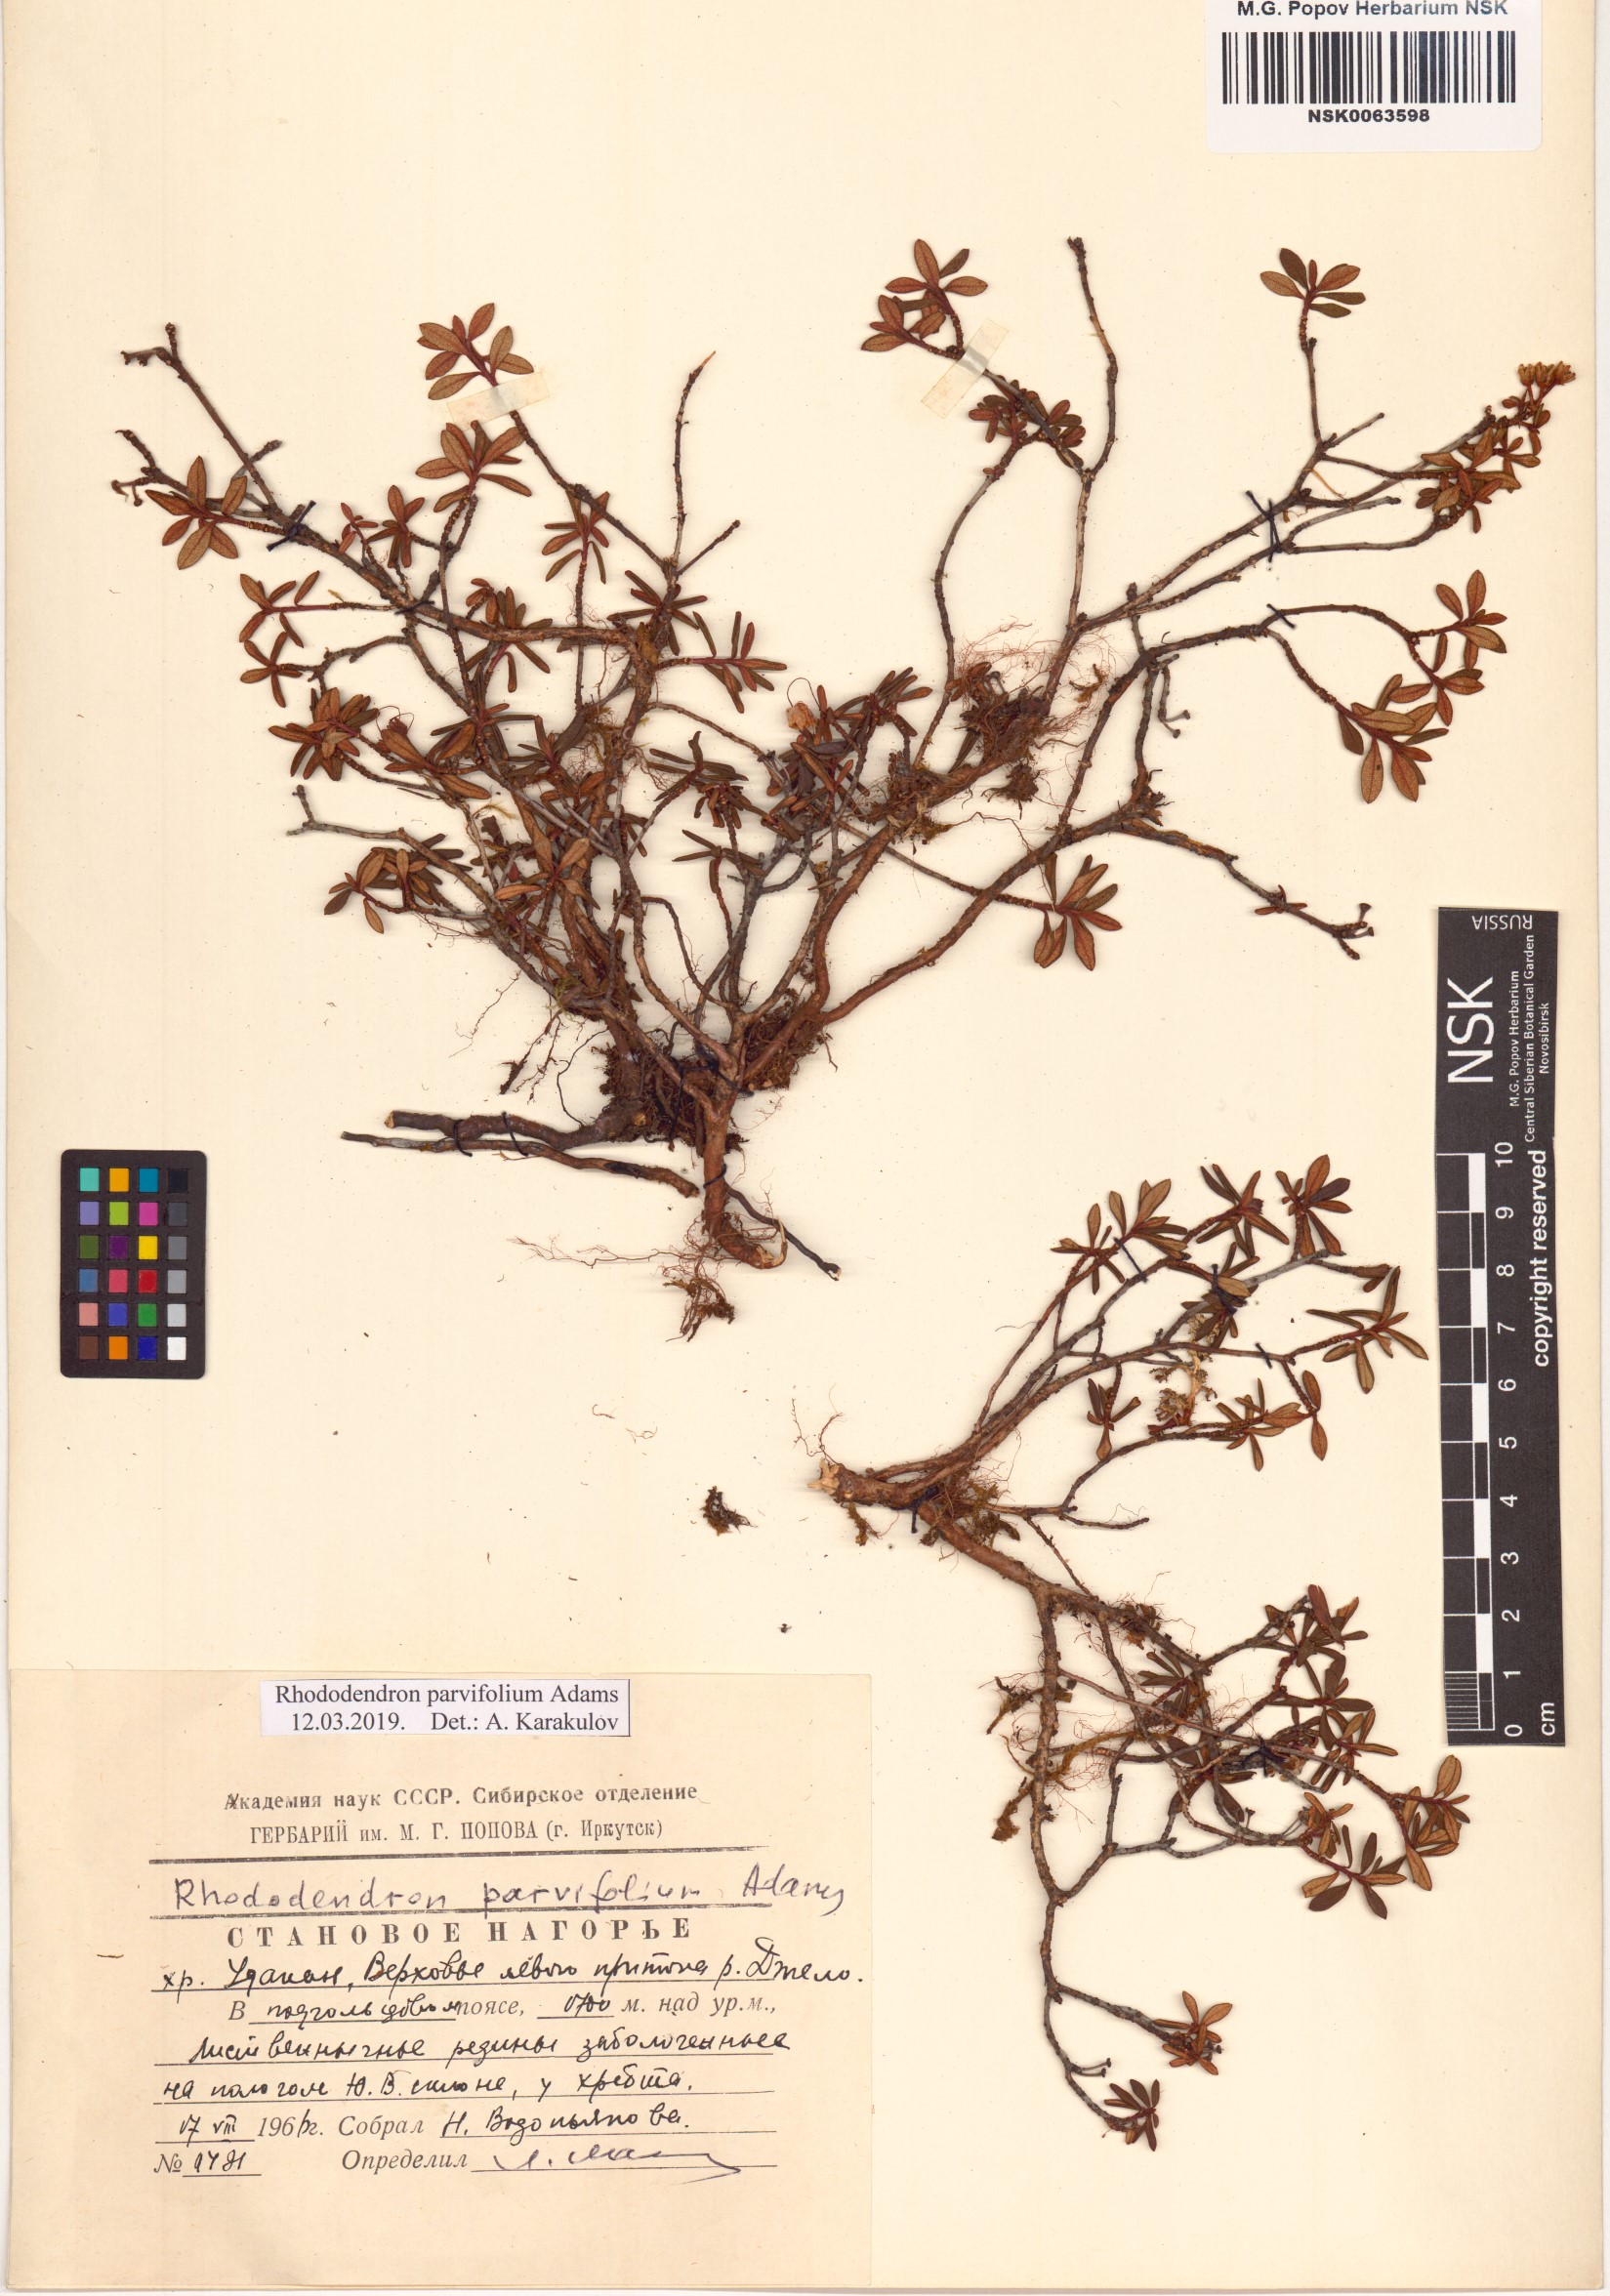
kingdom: Plantae
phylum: Tracheophyta
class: Magnoliopsida
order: Ericales
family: Ericaceae
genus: Rhododendron
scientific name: Rhododendron parvifolium
